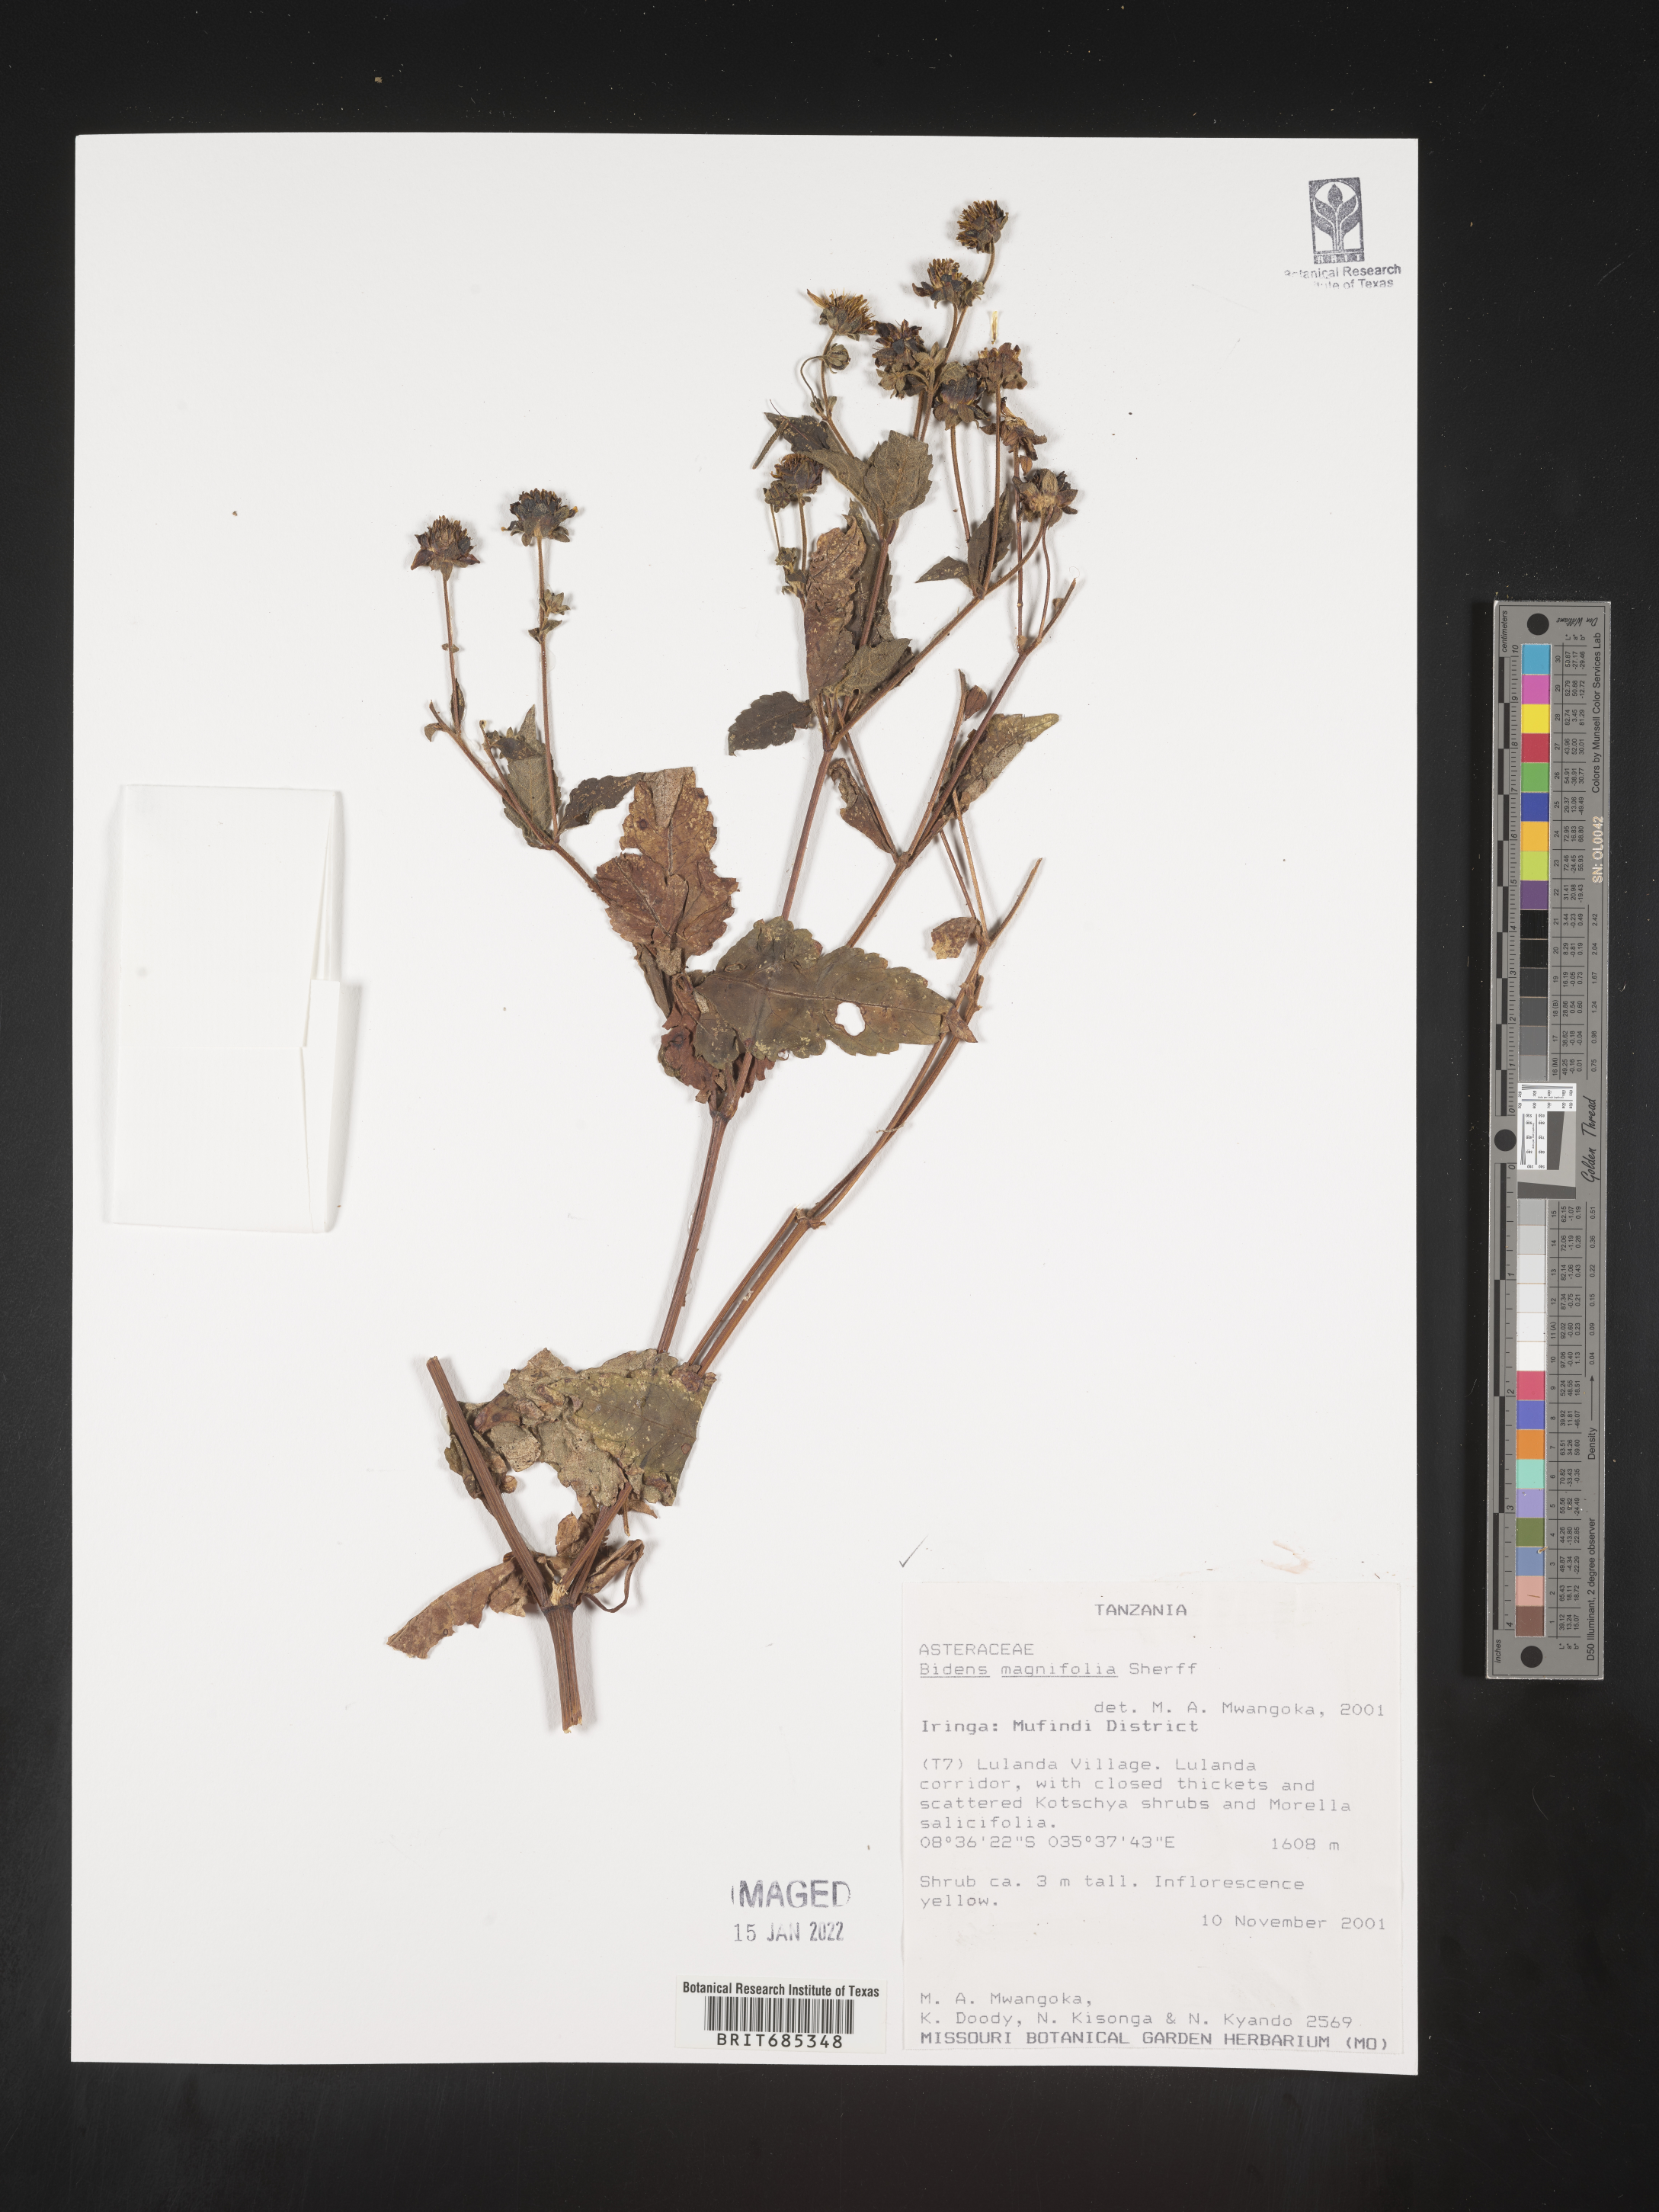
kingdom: Plantae
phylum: Tracheophyta
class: Magnoliopsida
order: Asterales
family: Asteraceae
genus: Bidens
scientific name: Bidens
